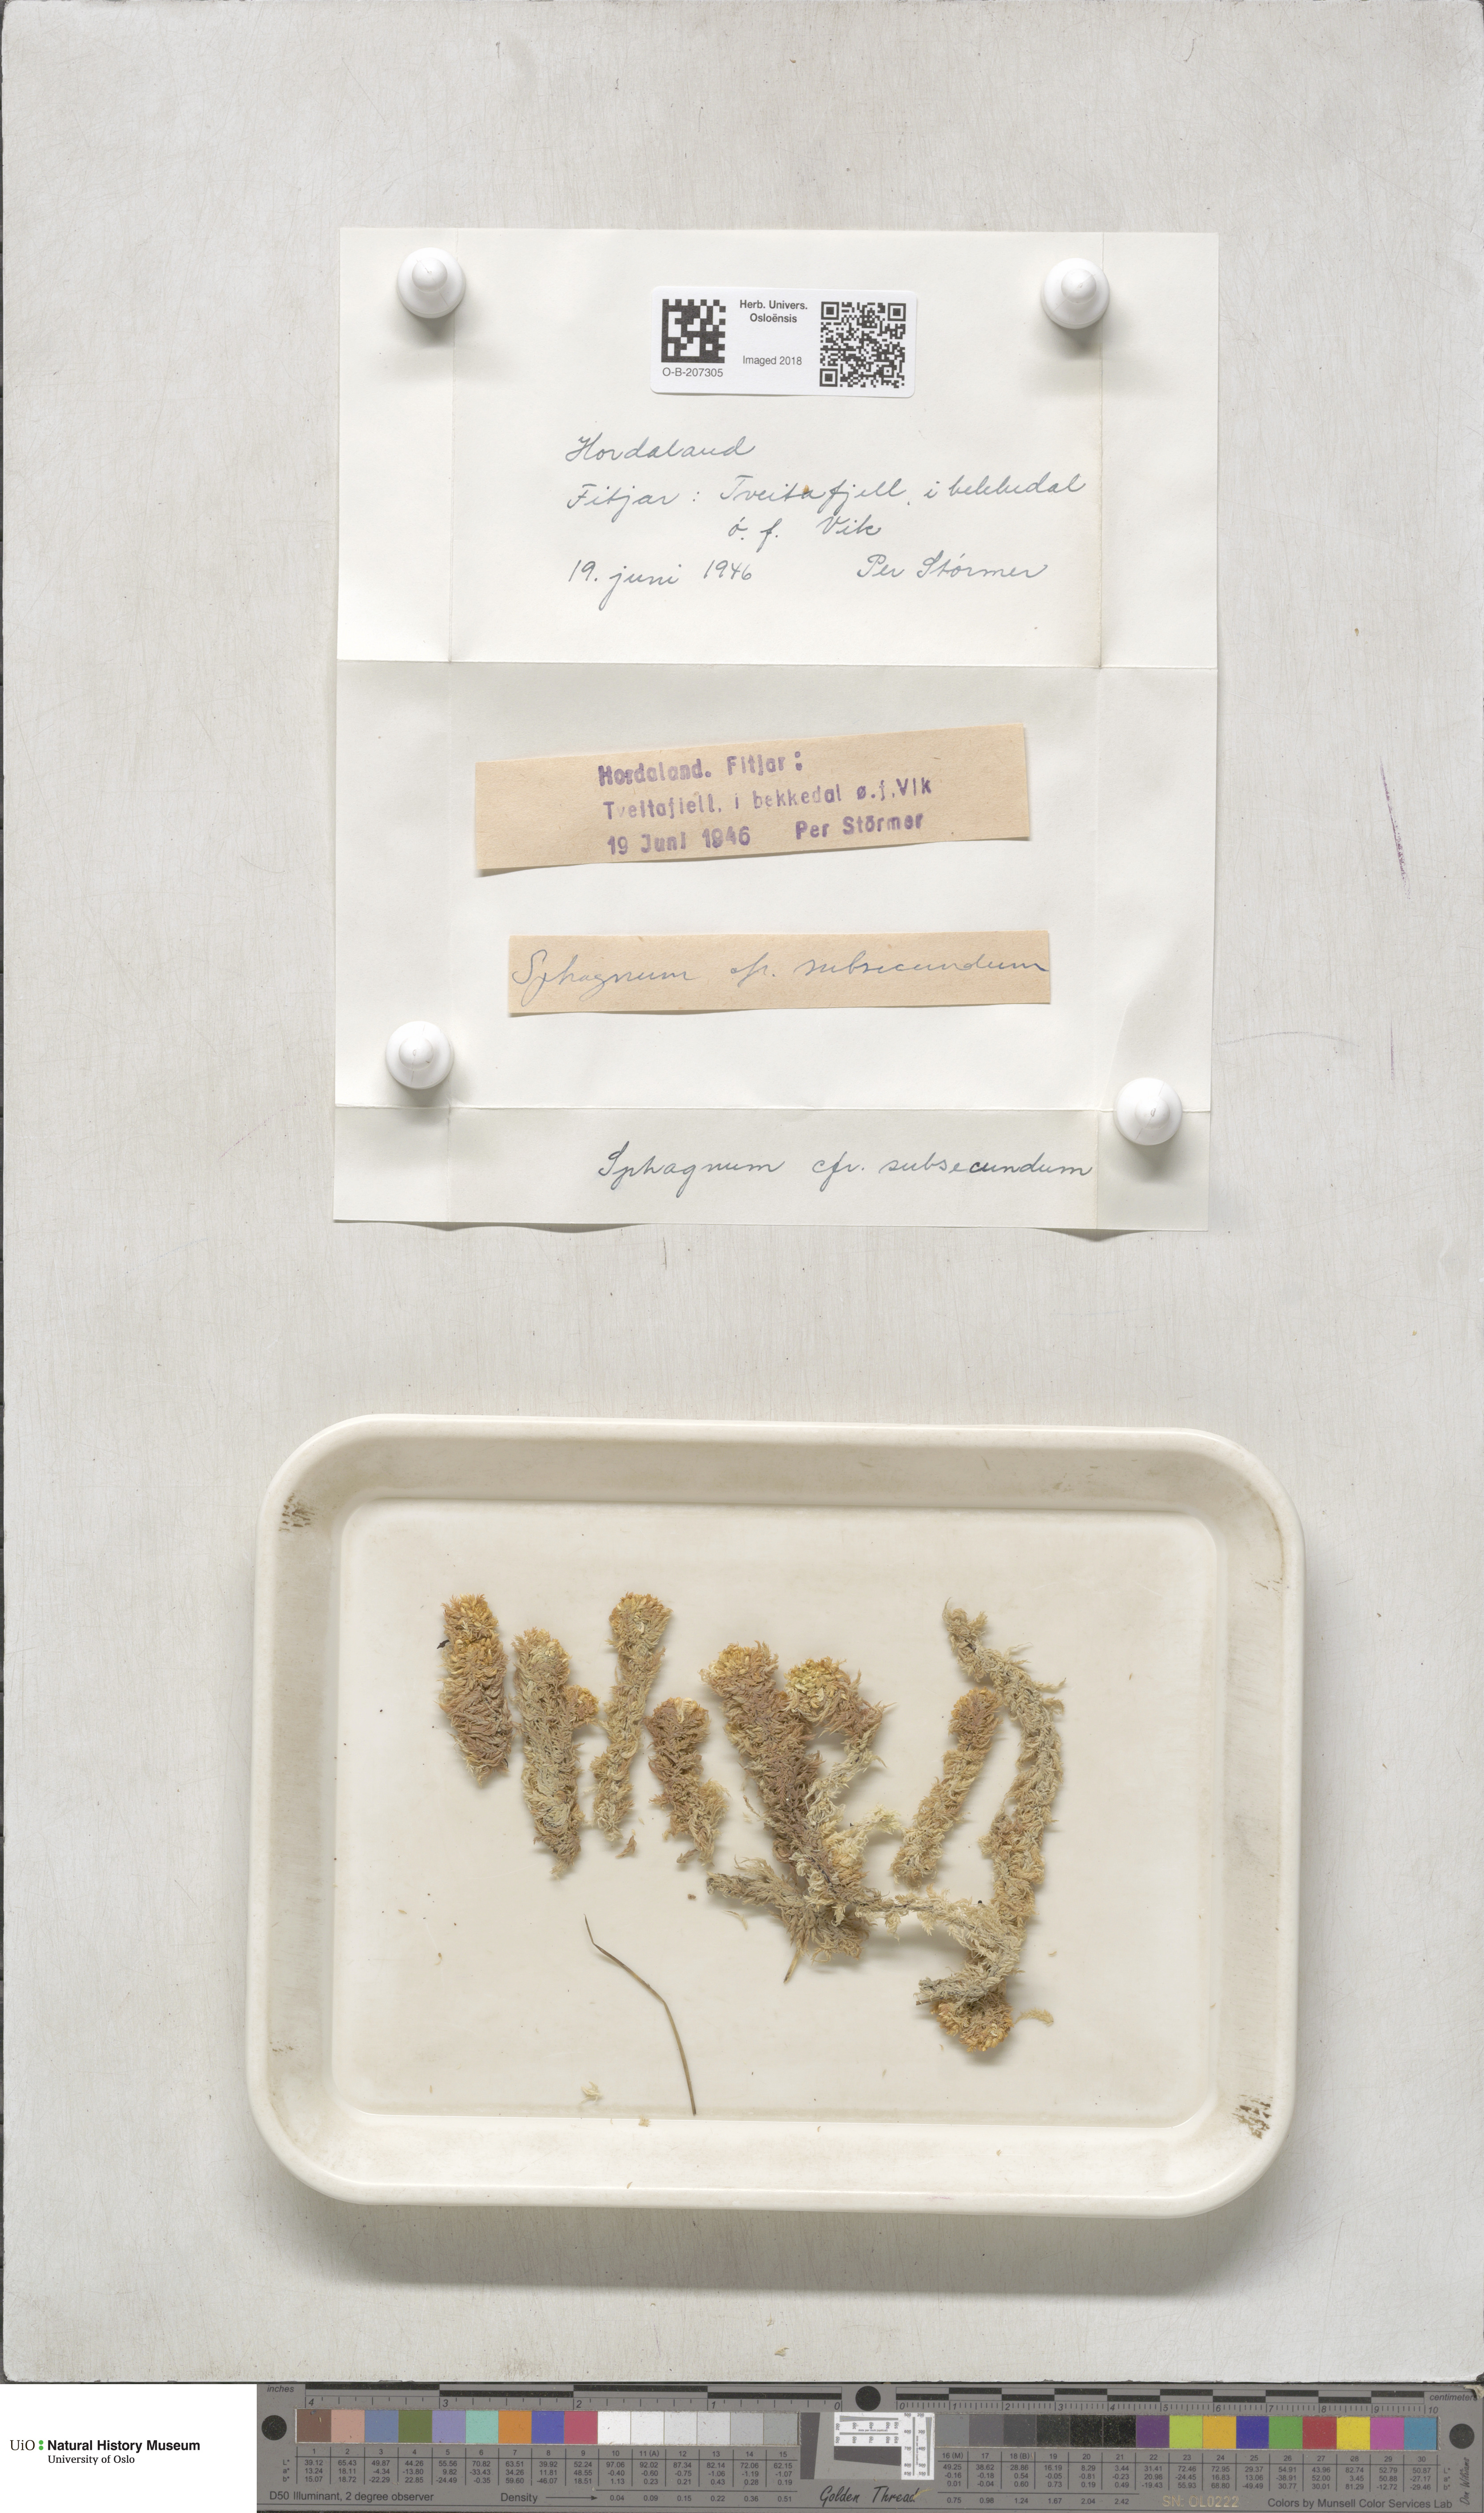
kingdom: Plantae
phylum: Bryophyta
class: Sphagnopsida
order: Sphagnales
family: Sphagnaceae
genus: Sphagnum
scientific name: Sphagnum subsecundum
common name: Orange peat moss
